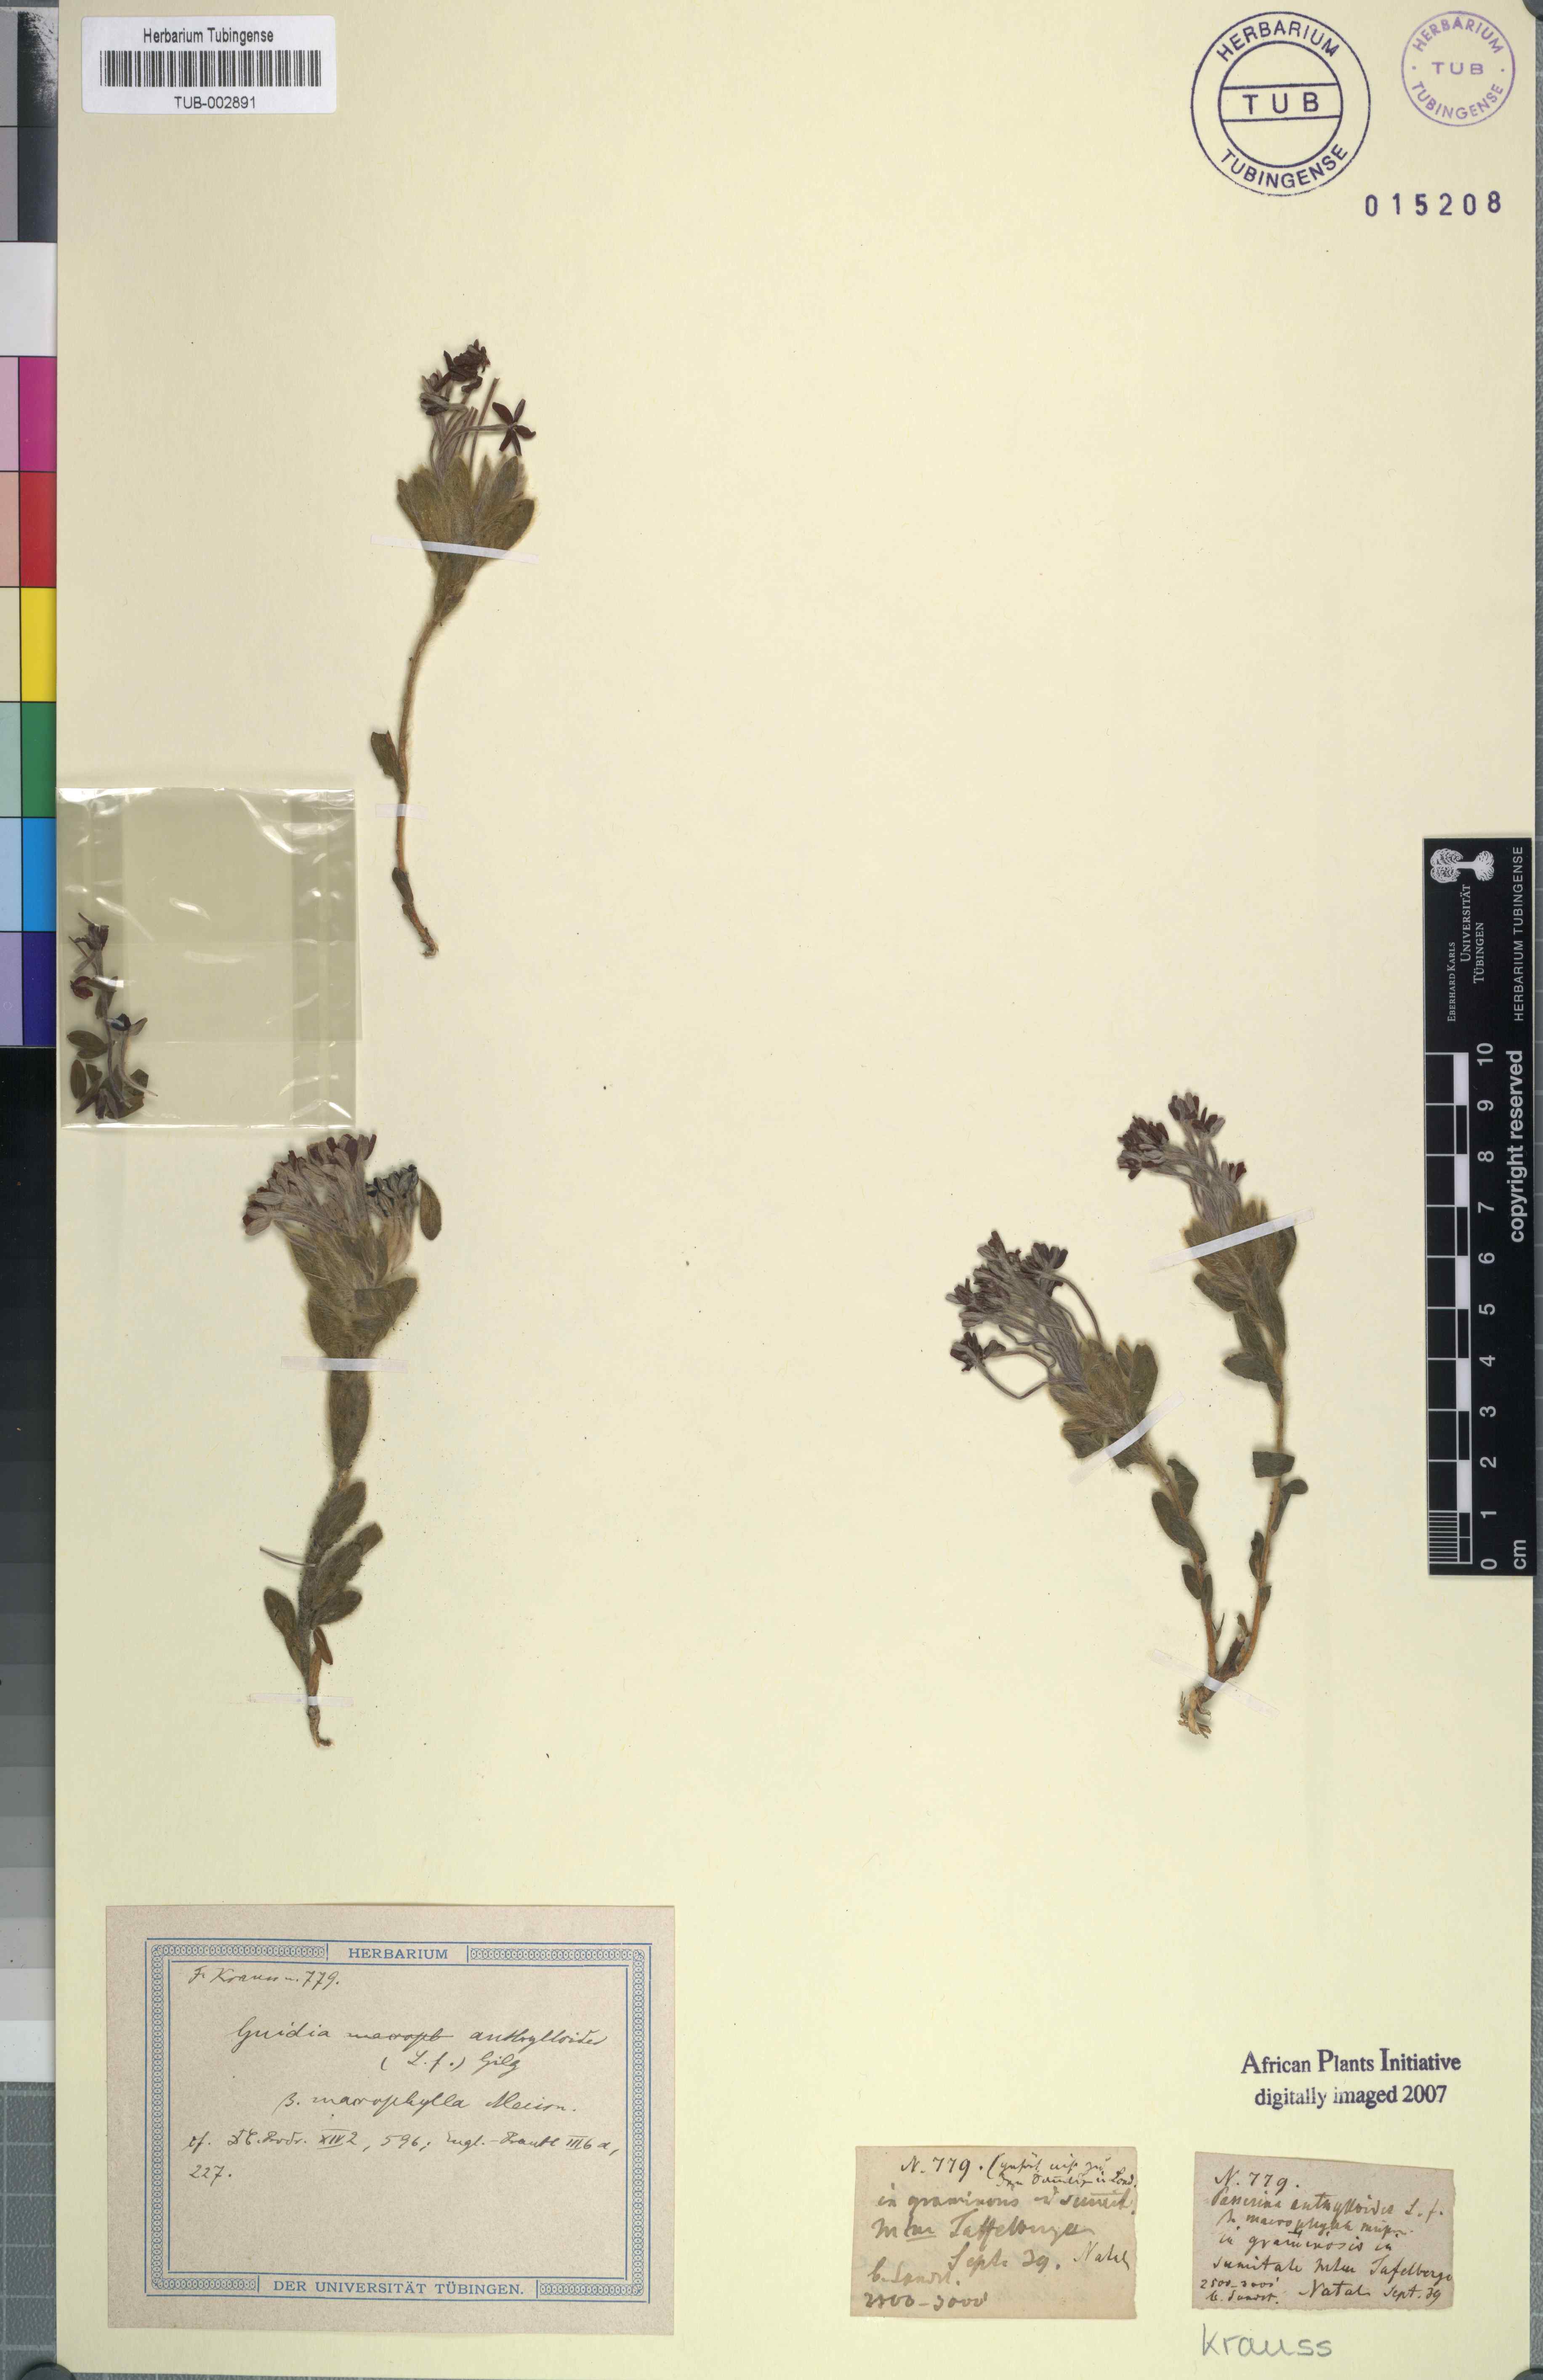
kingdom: Plantae
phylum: Tracheophyta
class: Magnoliopsida
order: Malvales
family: Thymelaeaceae
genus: Gnidia
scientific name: Gnidia anthylloides
